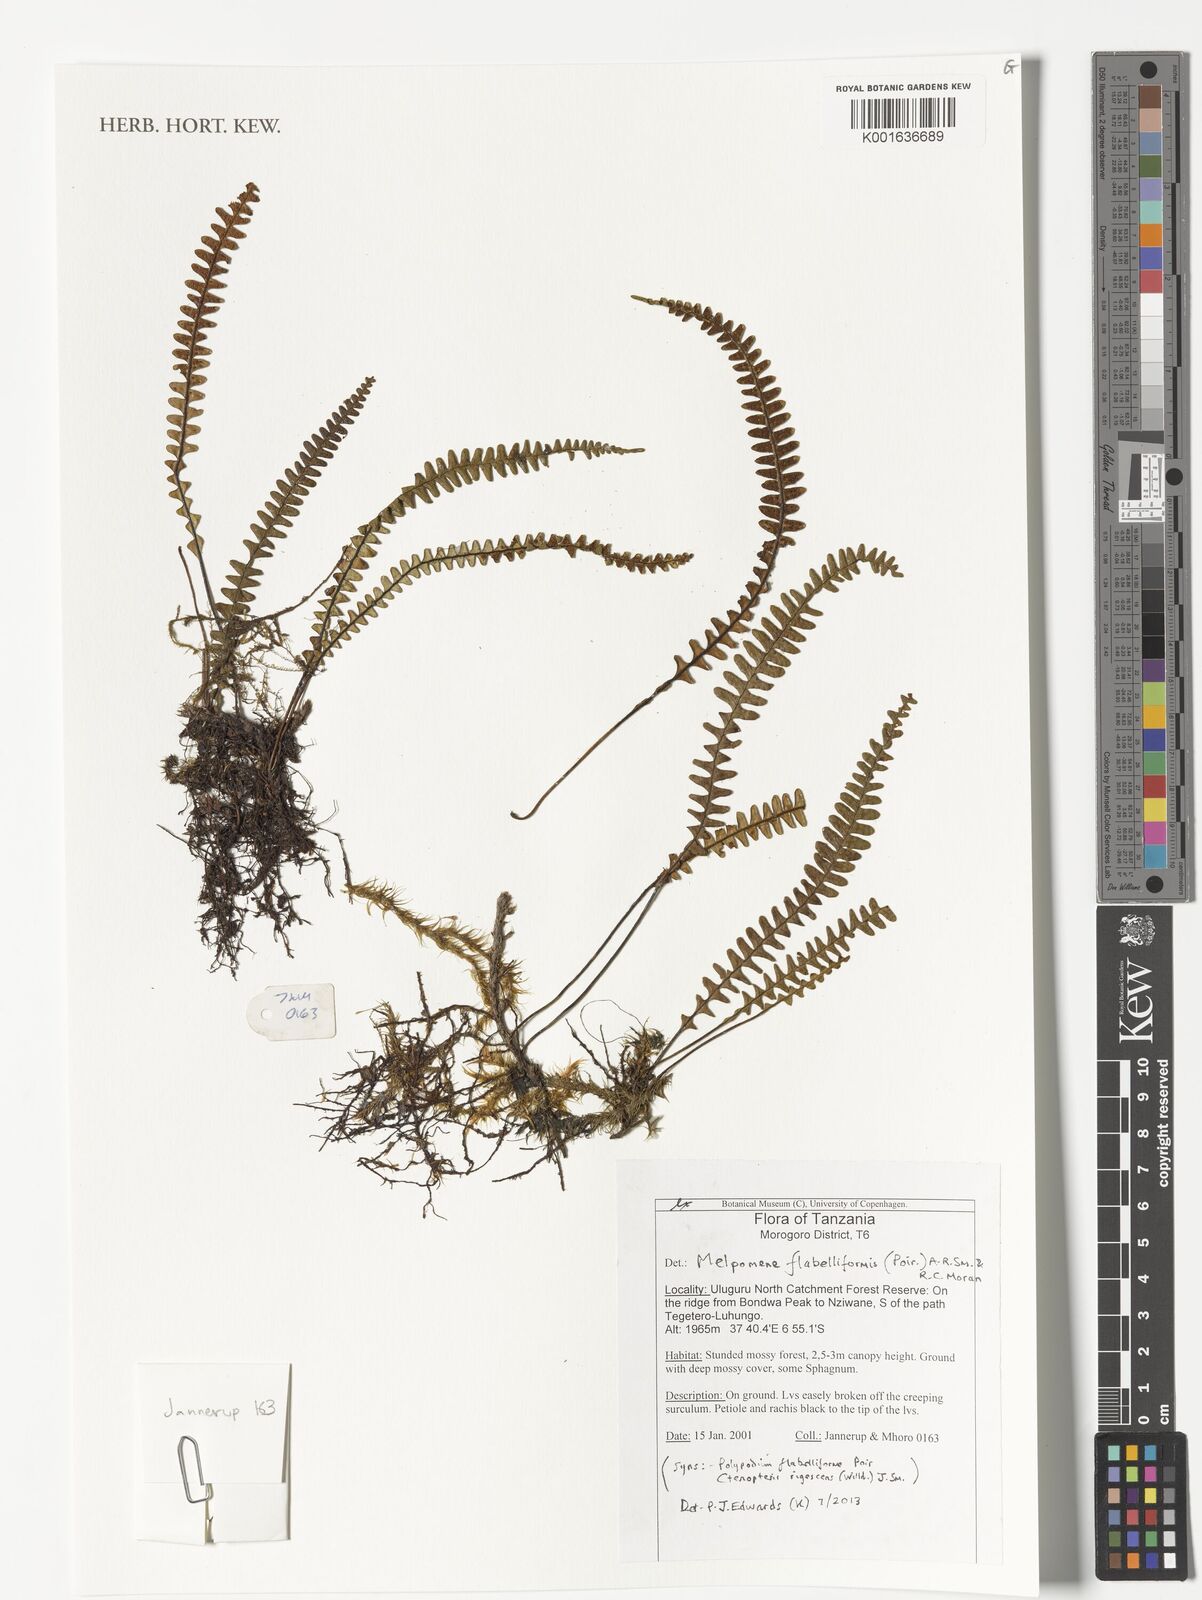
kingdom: Plantae
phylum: Tracheophyta
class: Polypodiopsida
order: Polypodiales
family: Polypodiaceae
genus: Melpomene
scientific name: Melpomene flabelliformis
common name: Fanleaf dwarf polypody
